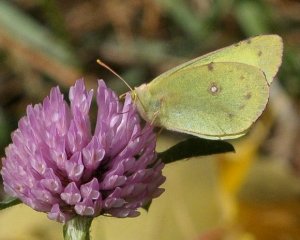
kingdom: Animalia
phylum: Arthropoda
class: Insecta
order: Lepidoptera
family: Pieridae
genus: Colias
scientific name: Colias philodice
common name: Clouded Sulphur
